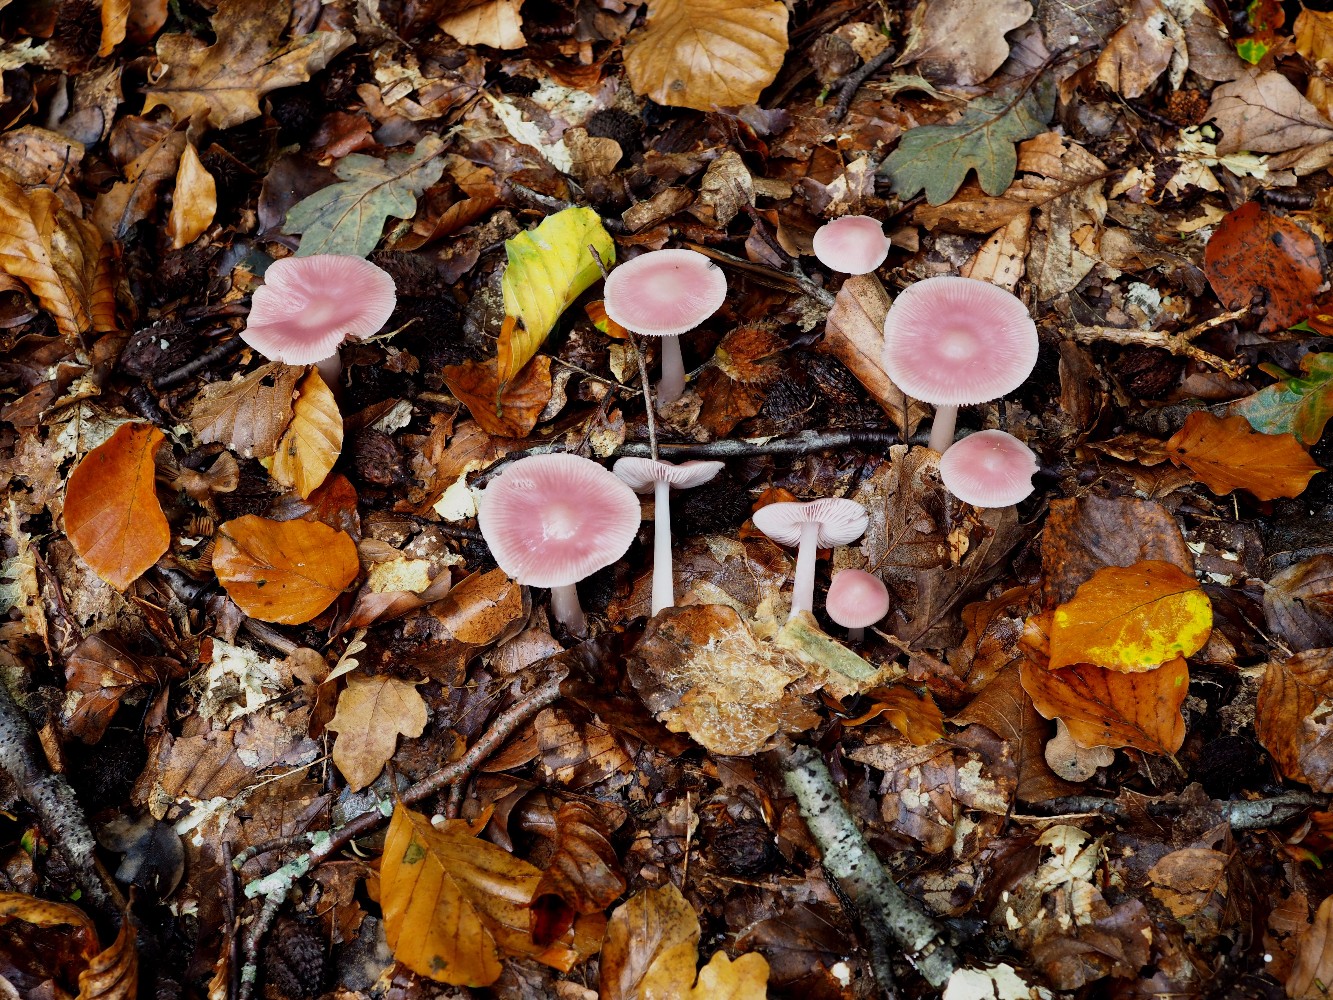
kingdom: Fungi
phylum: Basidiomycota
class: Agaricomycetes
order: Agaricales
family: Mycenaceae
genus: Mycena
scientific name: Mycena rosea
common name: rosa huesvamp
